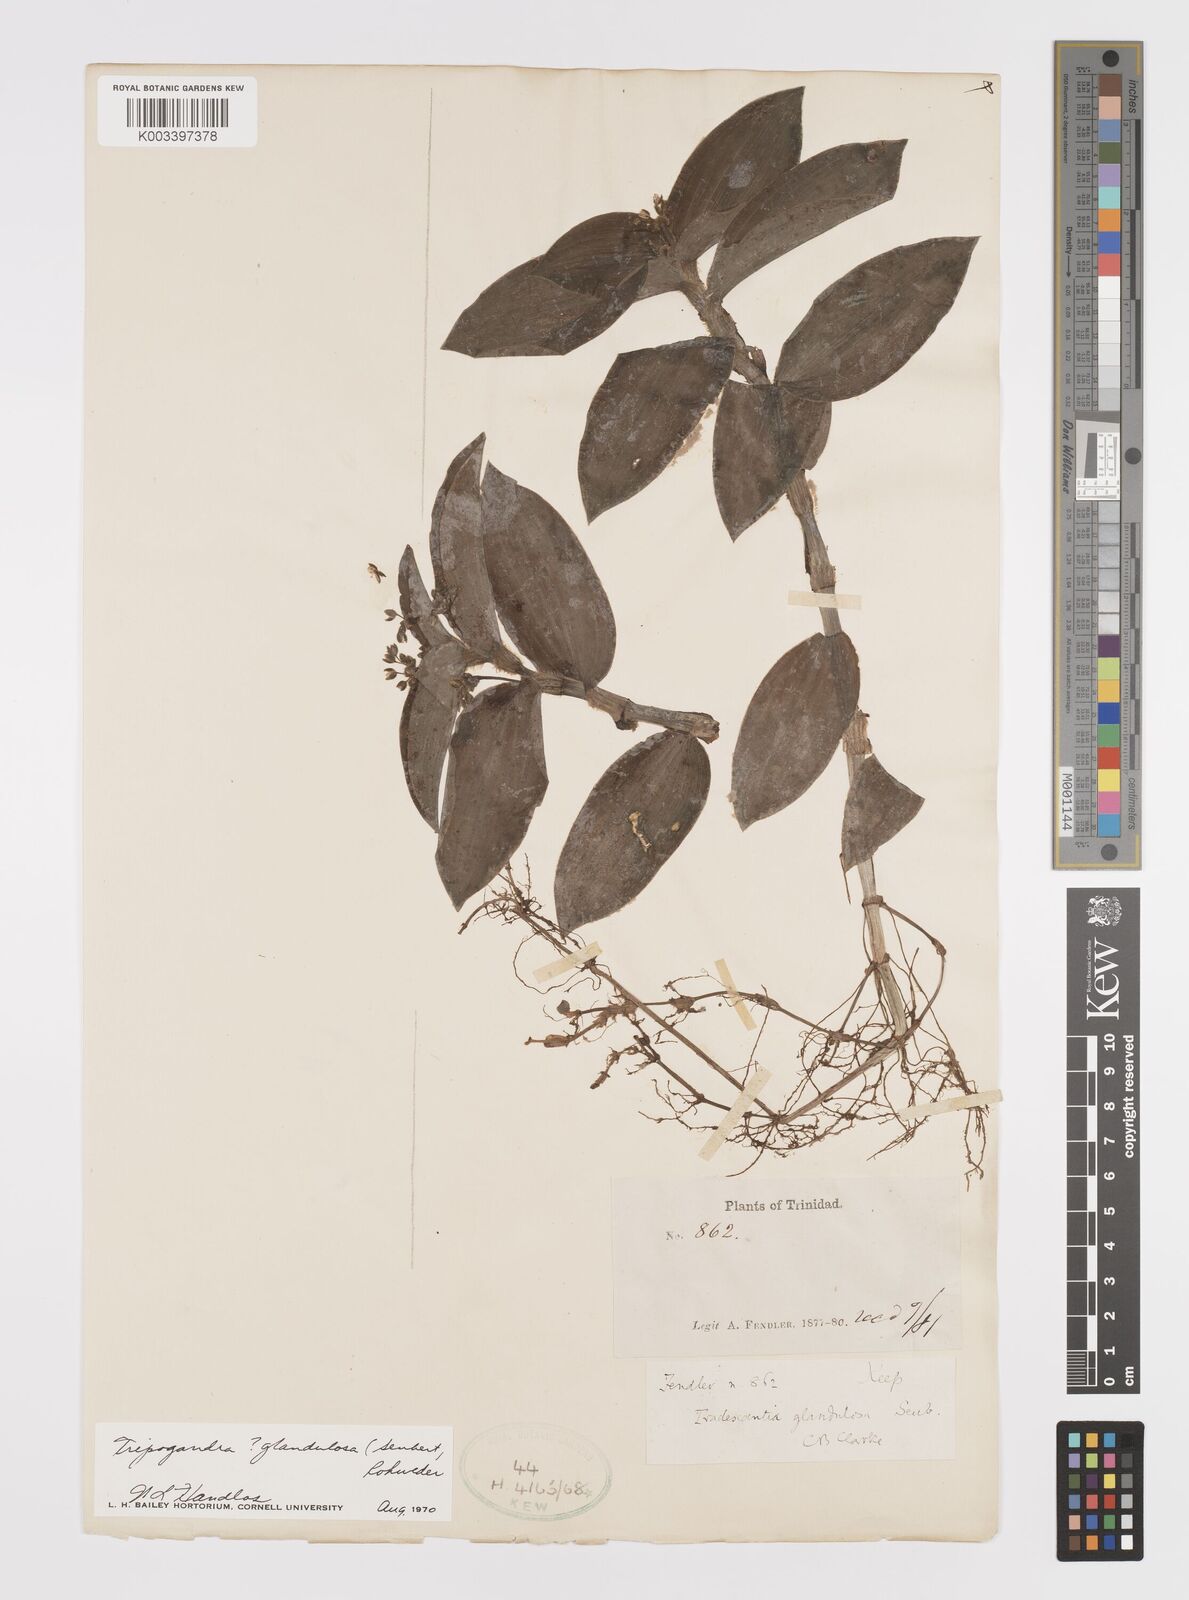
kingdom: Plantae
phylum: Tracheophyta
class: Liliopsida
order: Commelinales
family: Commelinaceae
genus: Callisia
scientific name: Callisia glandulosa
